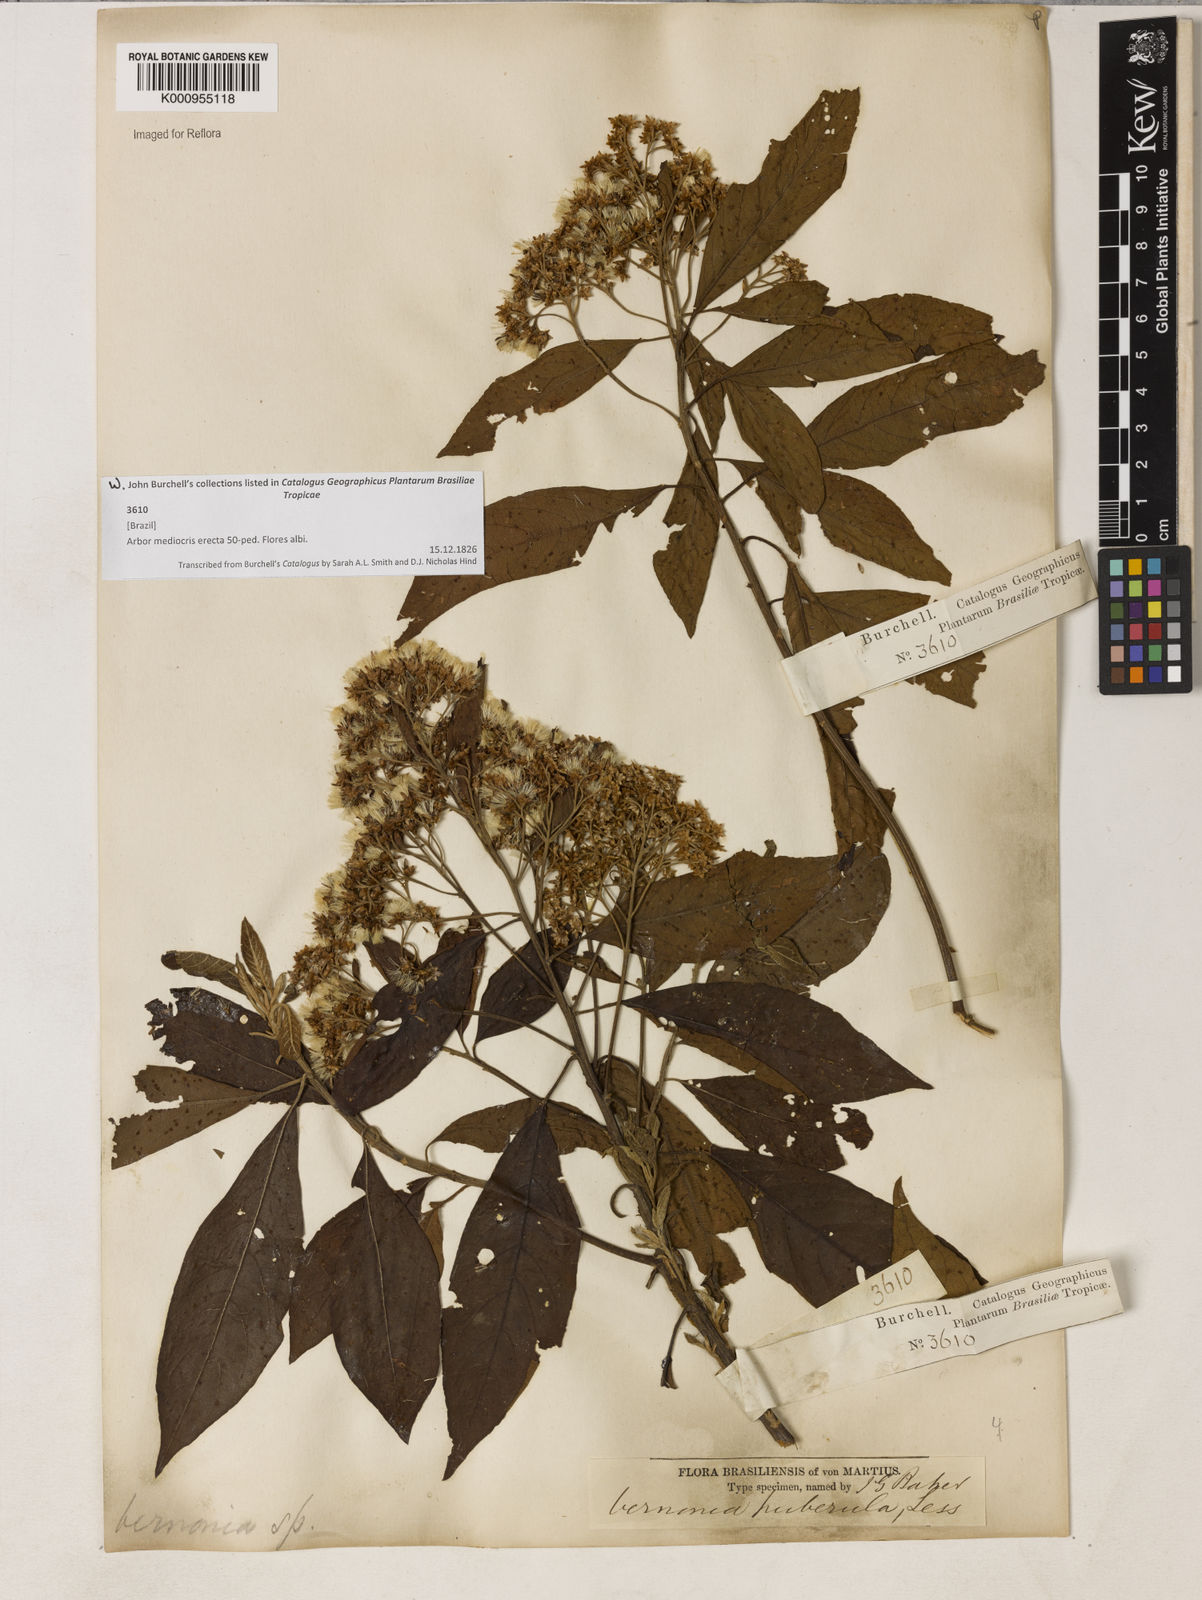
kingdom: Plantae
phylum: Tracheophyta
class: Magnoliopsida
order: Asterales
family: Asteraceae
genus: Vernonanthura
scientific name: Vernonanthura puberula
